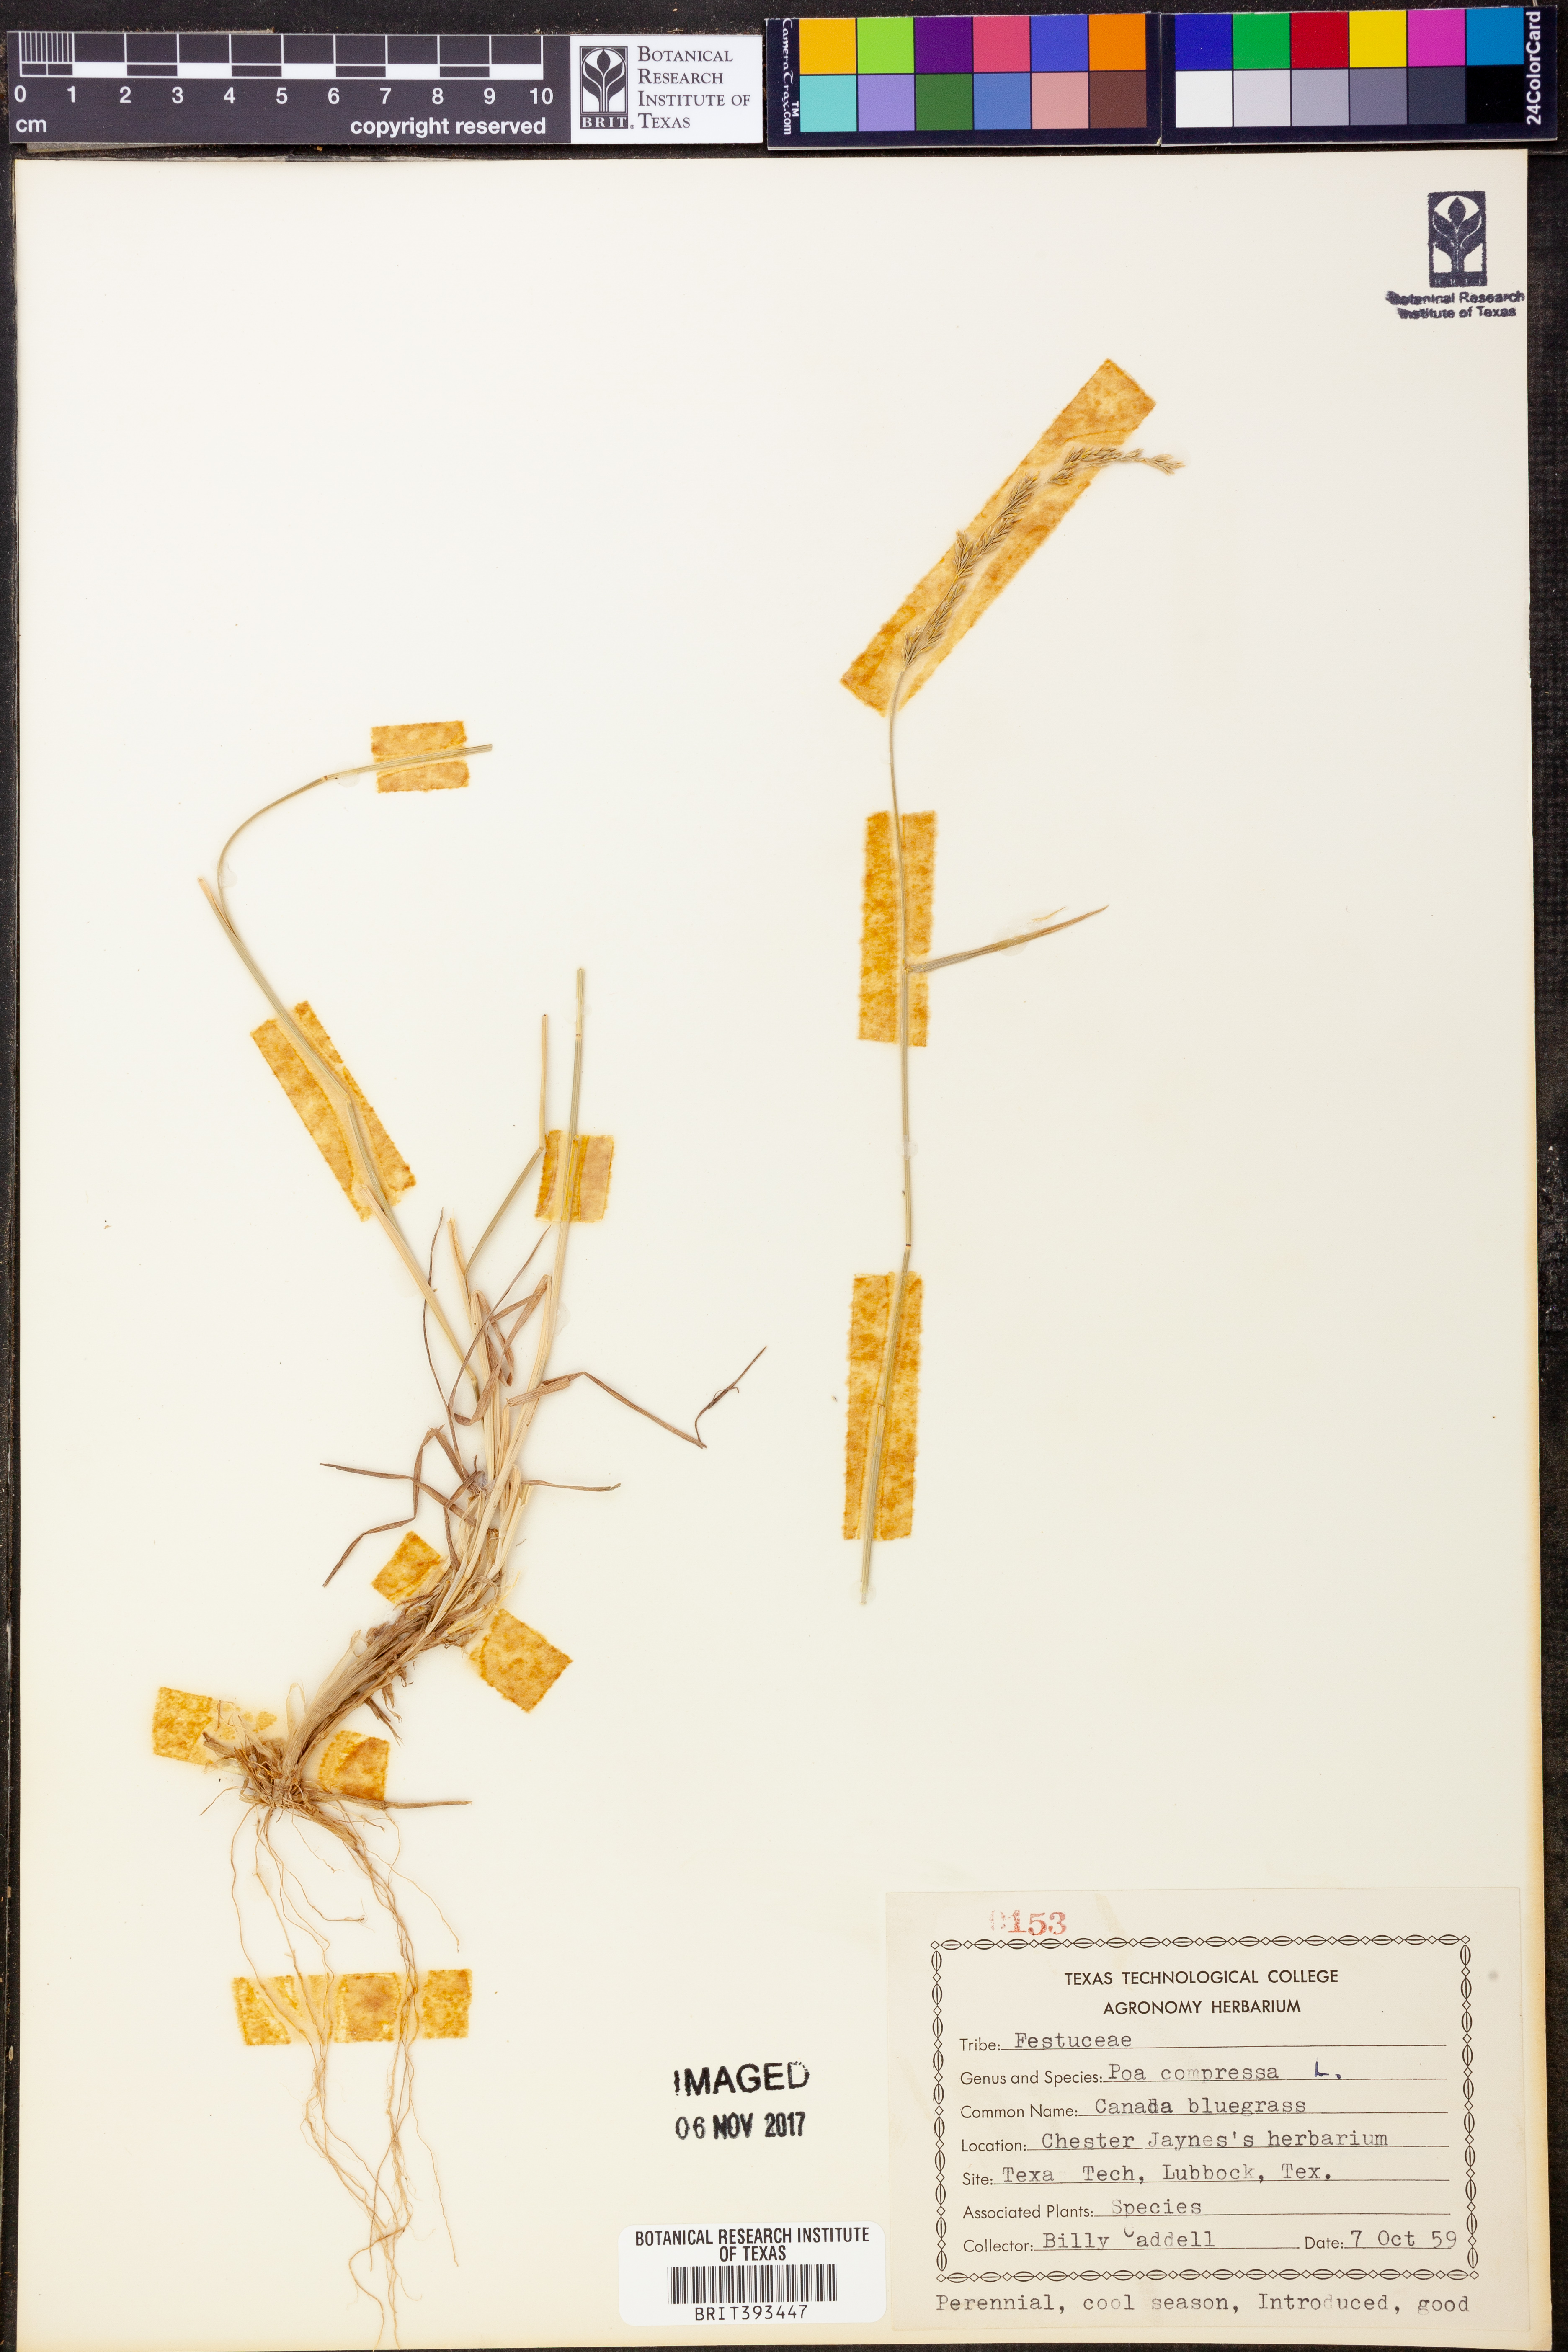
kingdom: Plantae
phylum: Tracheophyta
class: Liliopsida
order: Poales
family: Poaceae
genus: Poa
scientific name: Poa compressa
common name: Canada bluegrass
